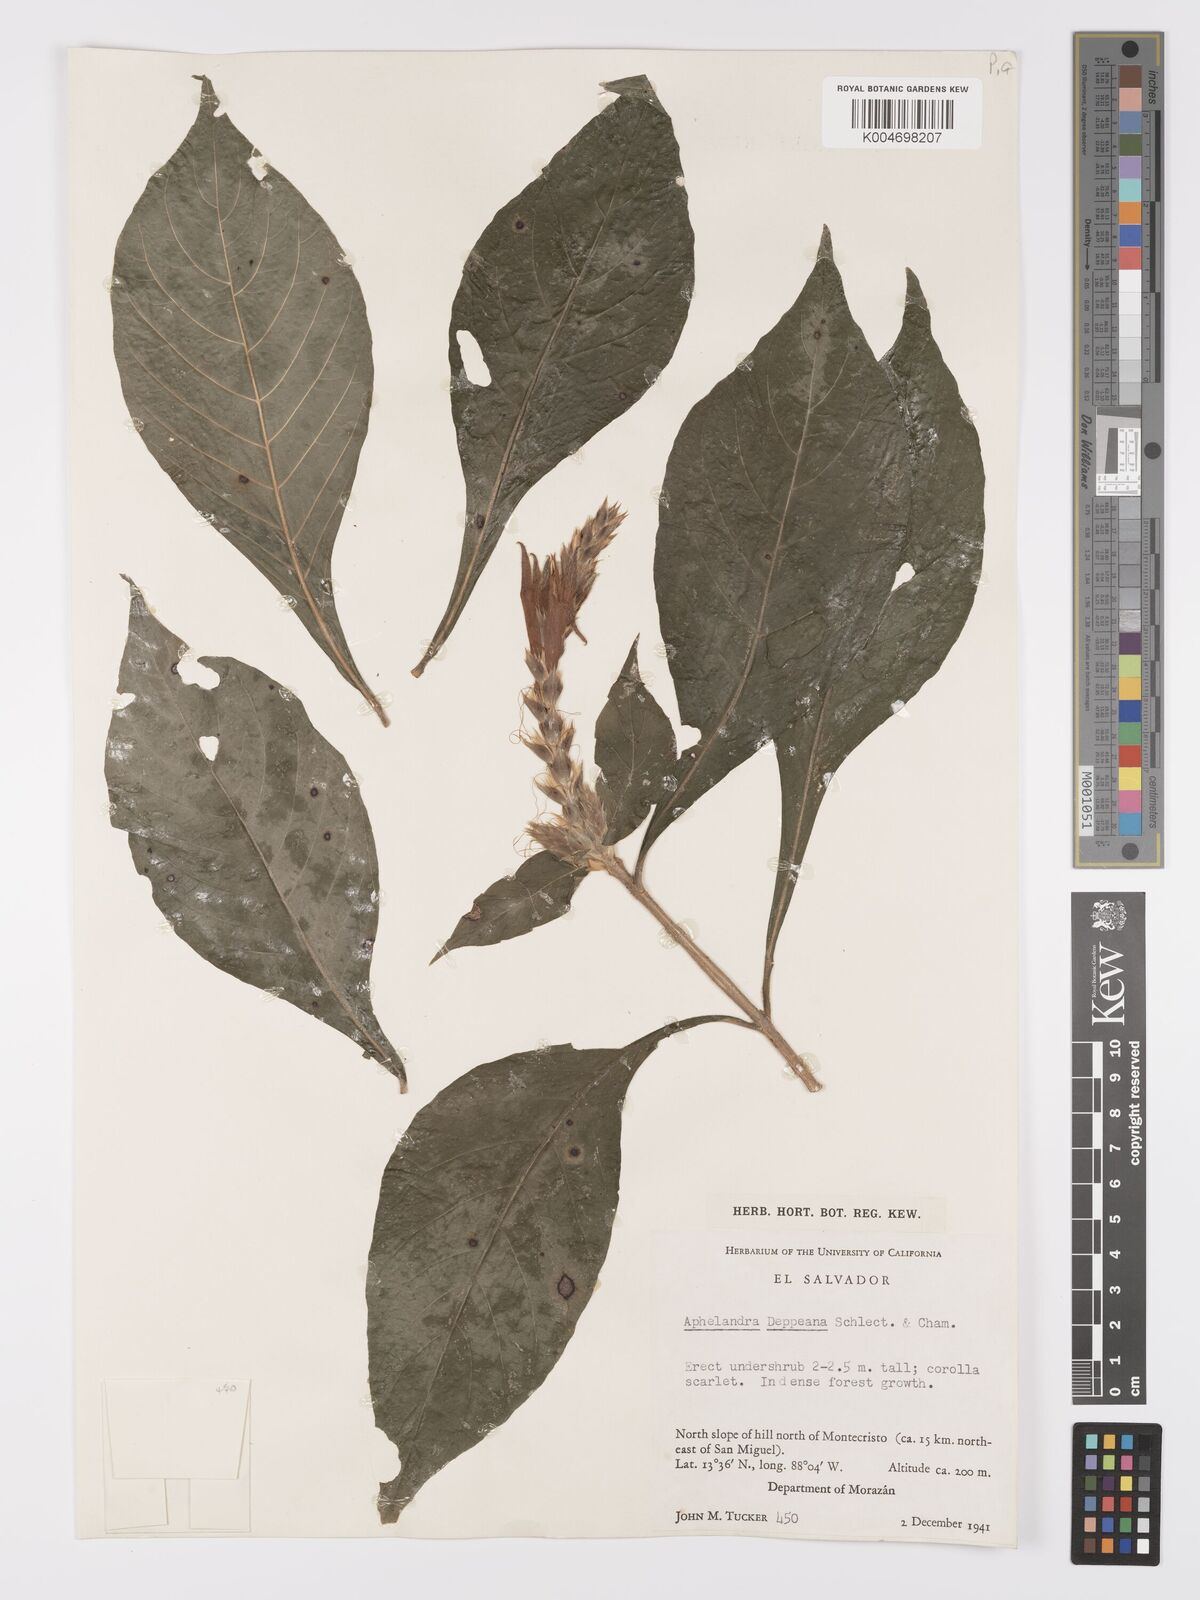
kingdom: Plantae
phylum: Tracheophyta
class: Magnoliopsida
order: Lamiales
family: Acanthaceae
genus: Aphelandra
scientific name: Aphelandra scabra
